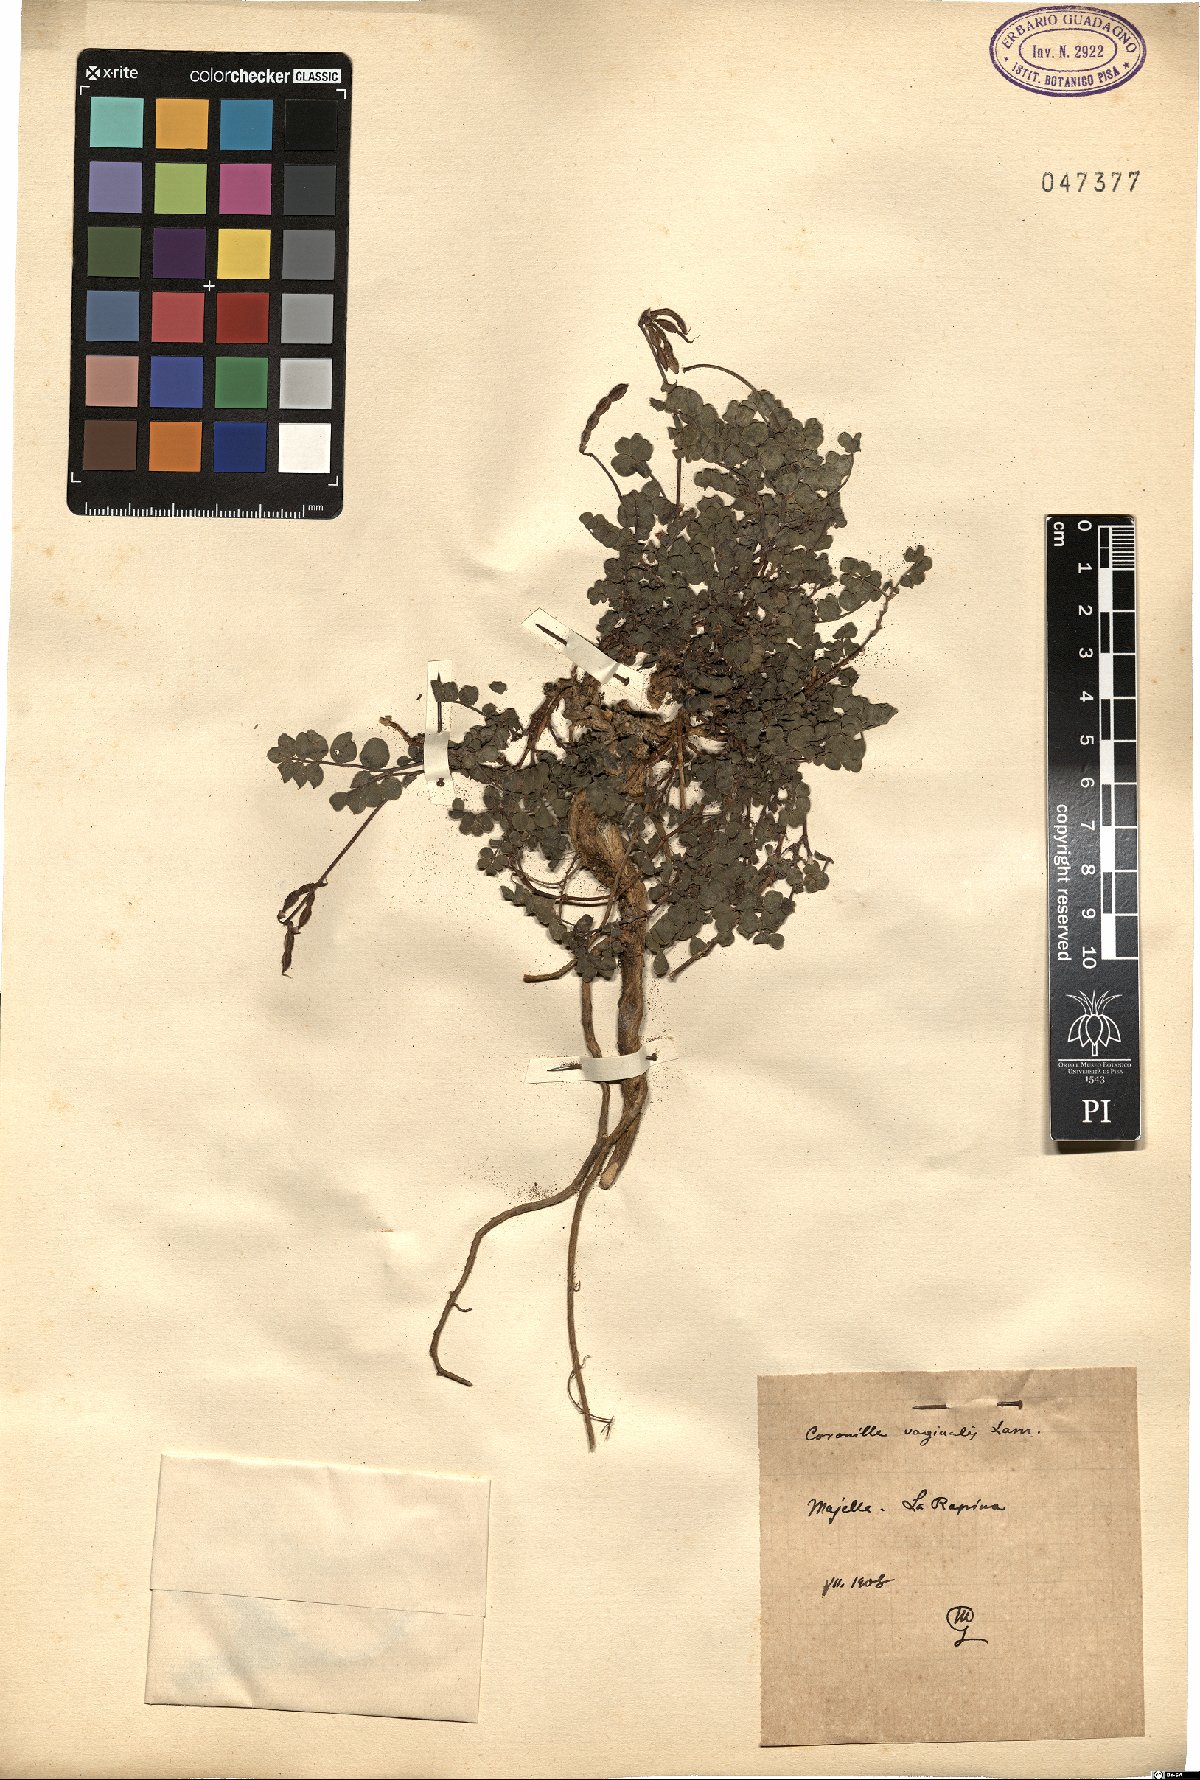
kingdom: Plantae
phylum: Tracheophyta
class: Magnoliopsida
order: Fabales
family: Fabaceae
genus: Coronilla
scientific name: Coronilla vaginalis
